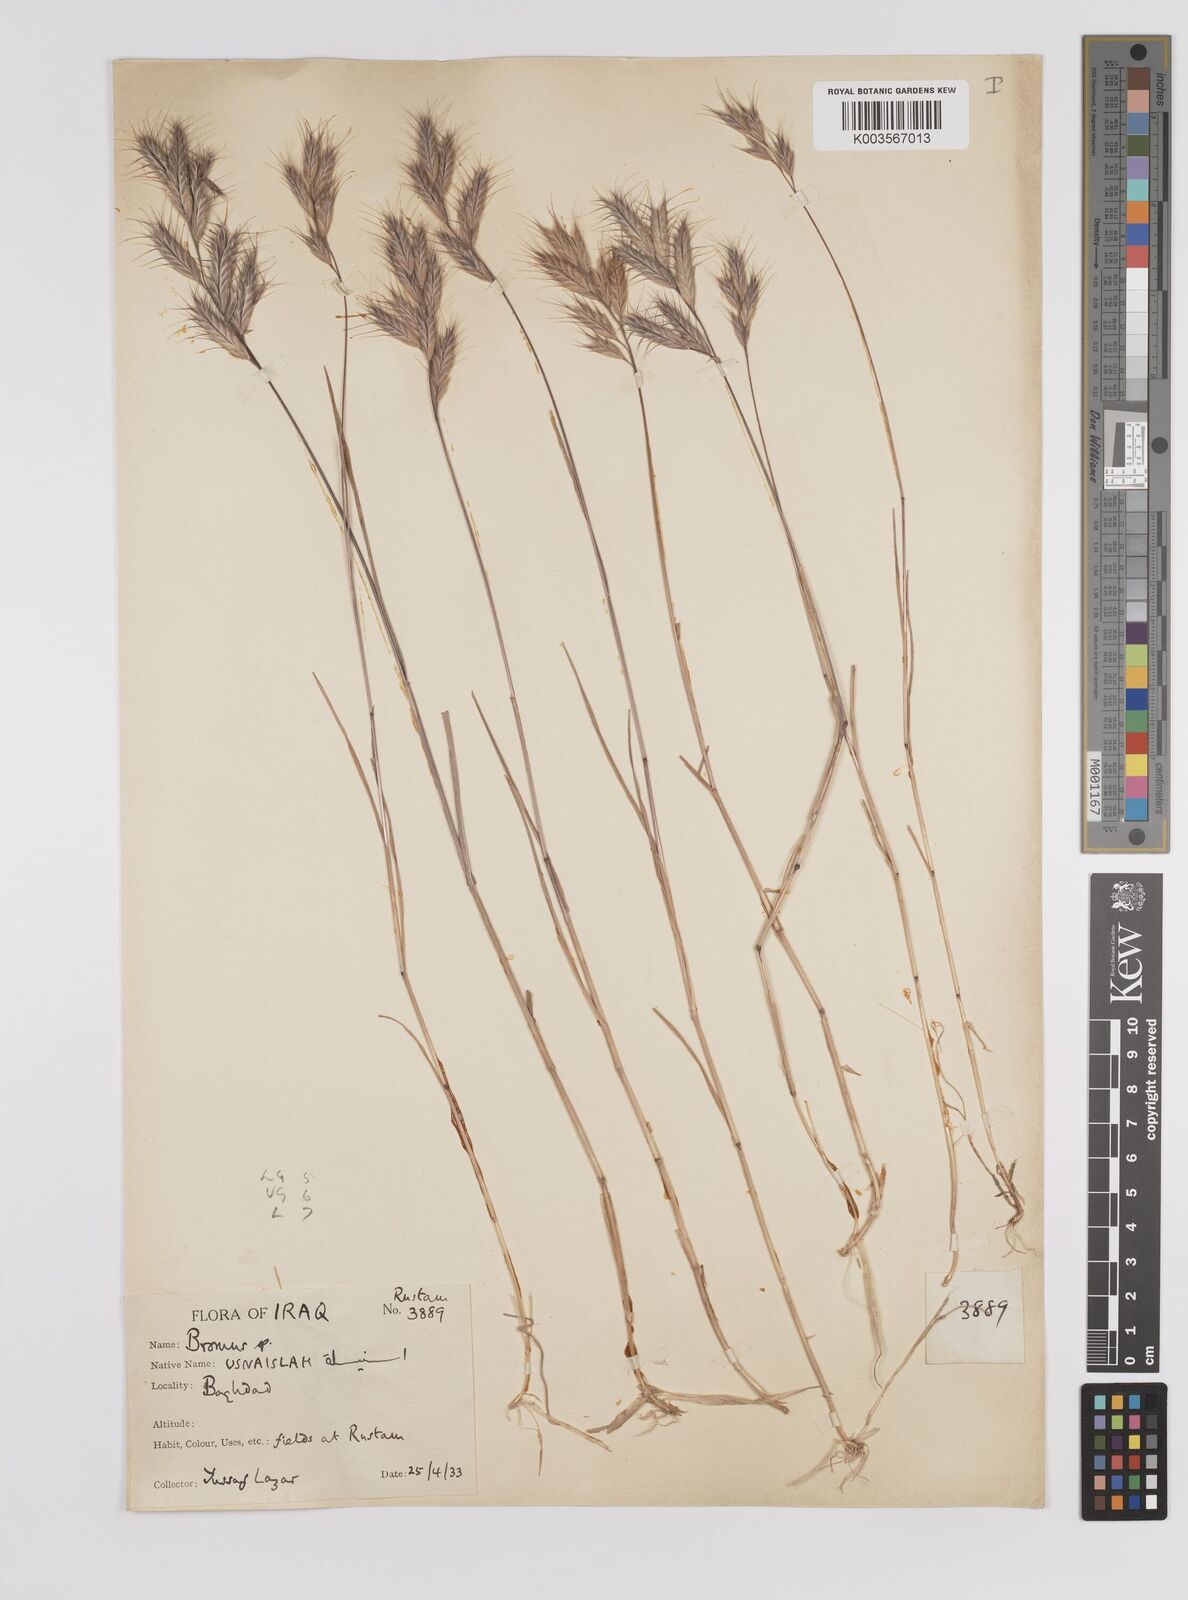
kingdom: Plantae
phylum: Tracheophyta
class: Liliopsida
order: Poales
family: Poaceae
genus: Bromus
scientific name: Bromus danthoniae
